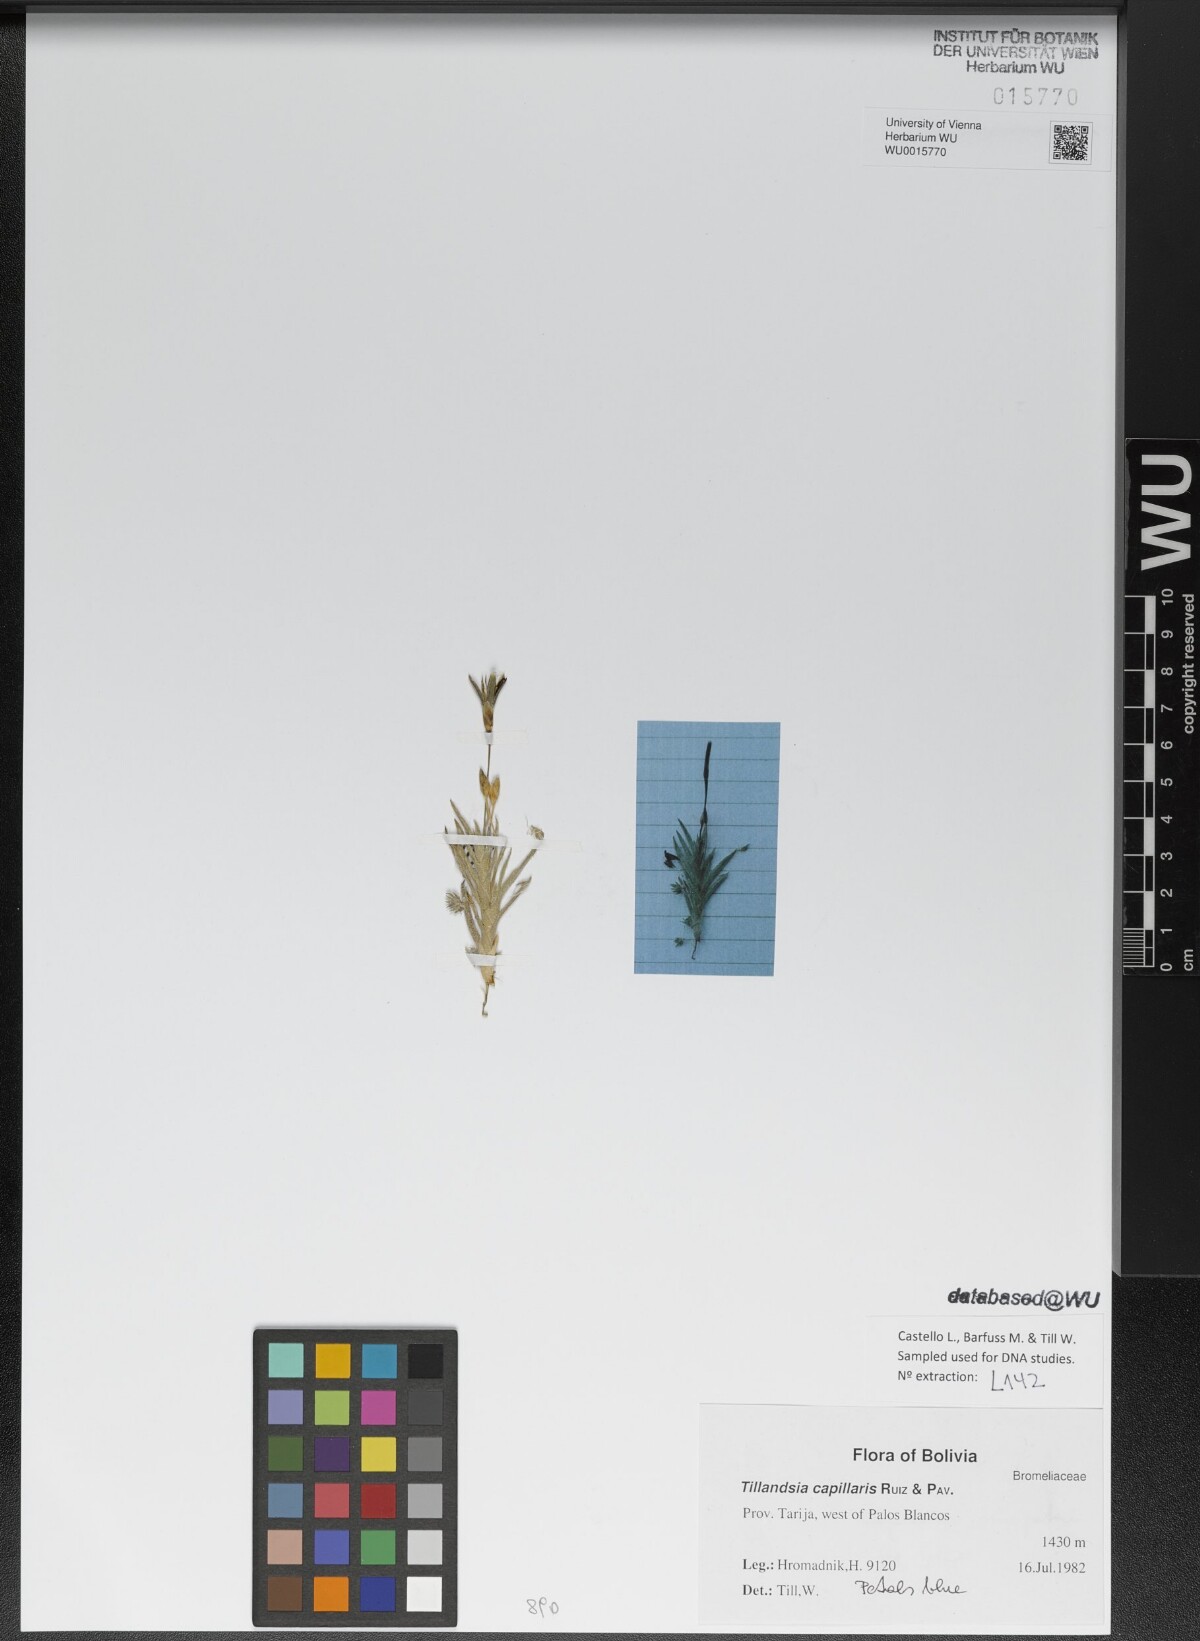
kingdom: Plantae
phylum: Tracheophyta
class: Liliopsida
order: Poales
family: Bromeliaceae
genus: Tillandsia
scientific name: Tillandsia capillaris
